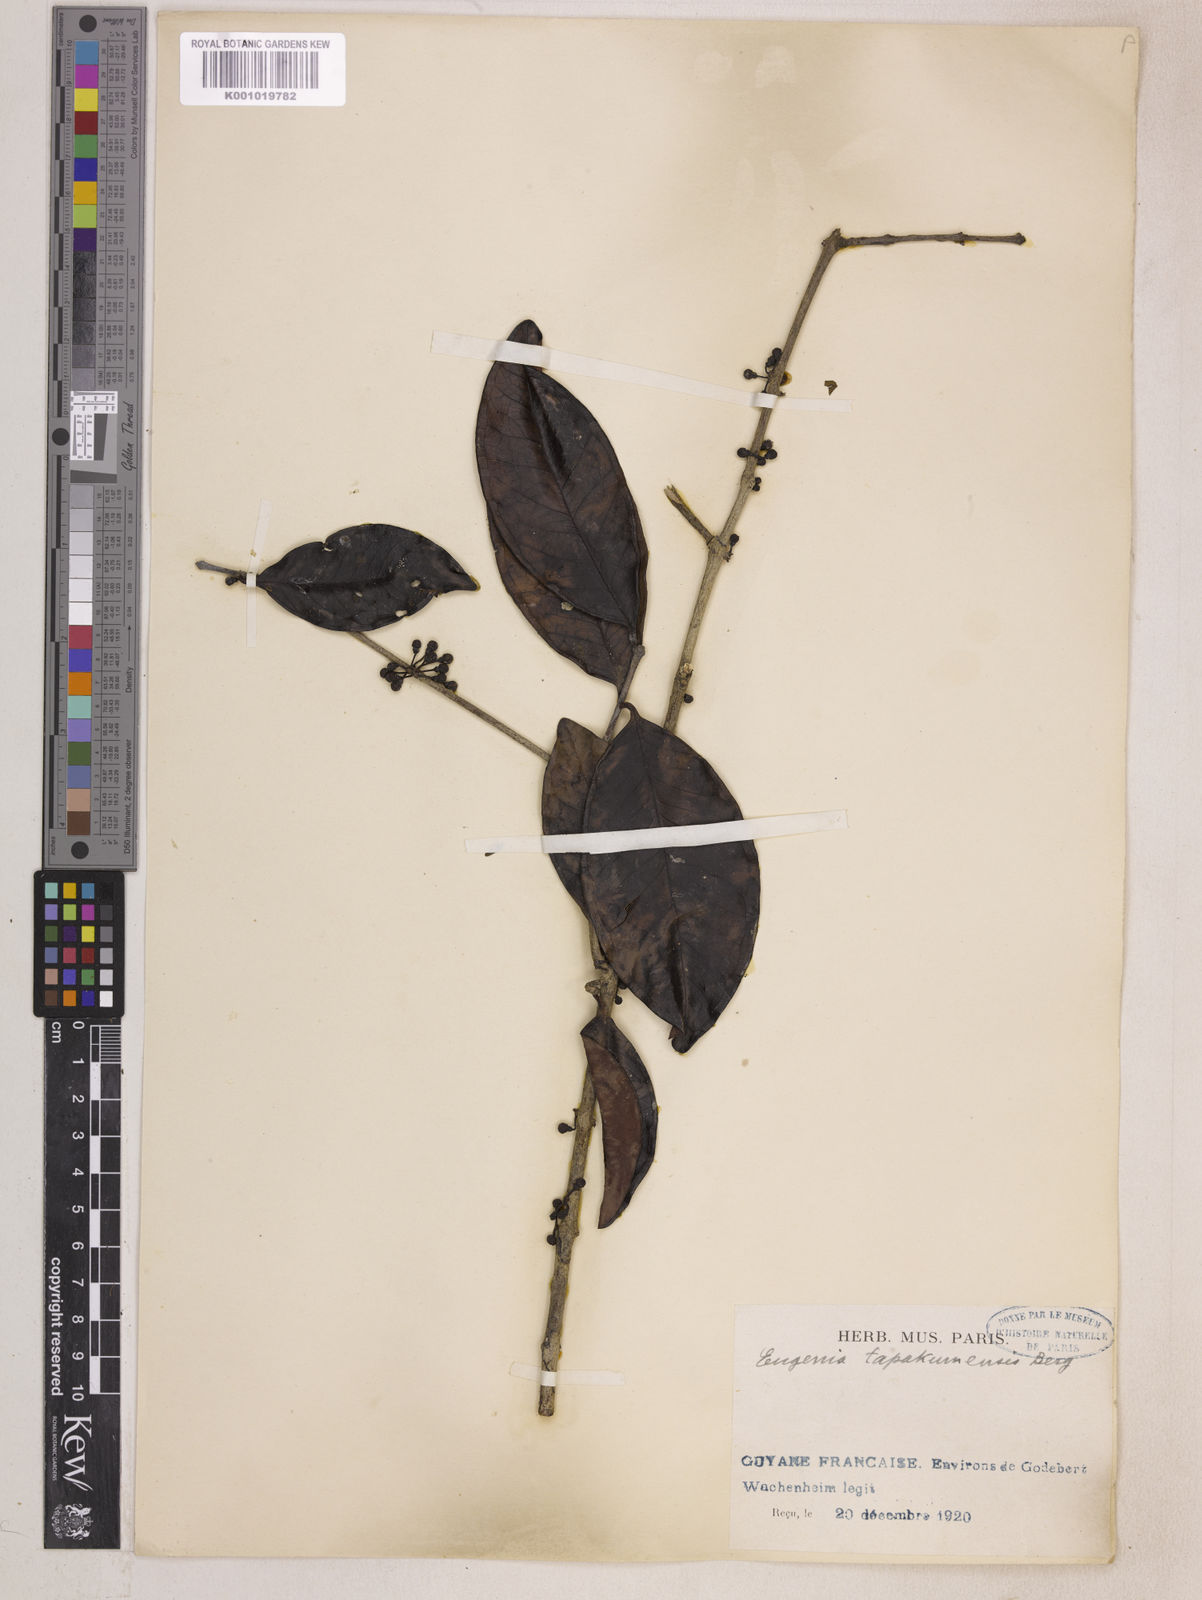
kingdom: Plantae
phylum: Tracheophyta
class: Magnoliopsida
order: Myrtales
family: Myrtaceae
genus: Eugenia
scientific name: Eugenia stictopetala
